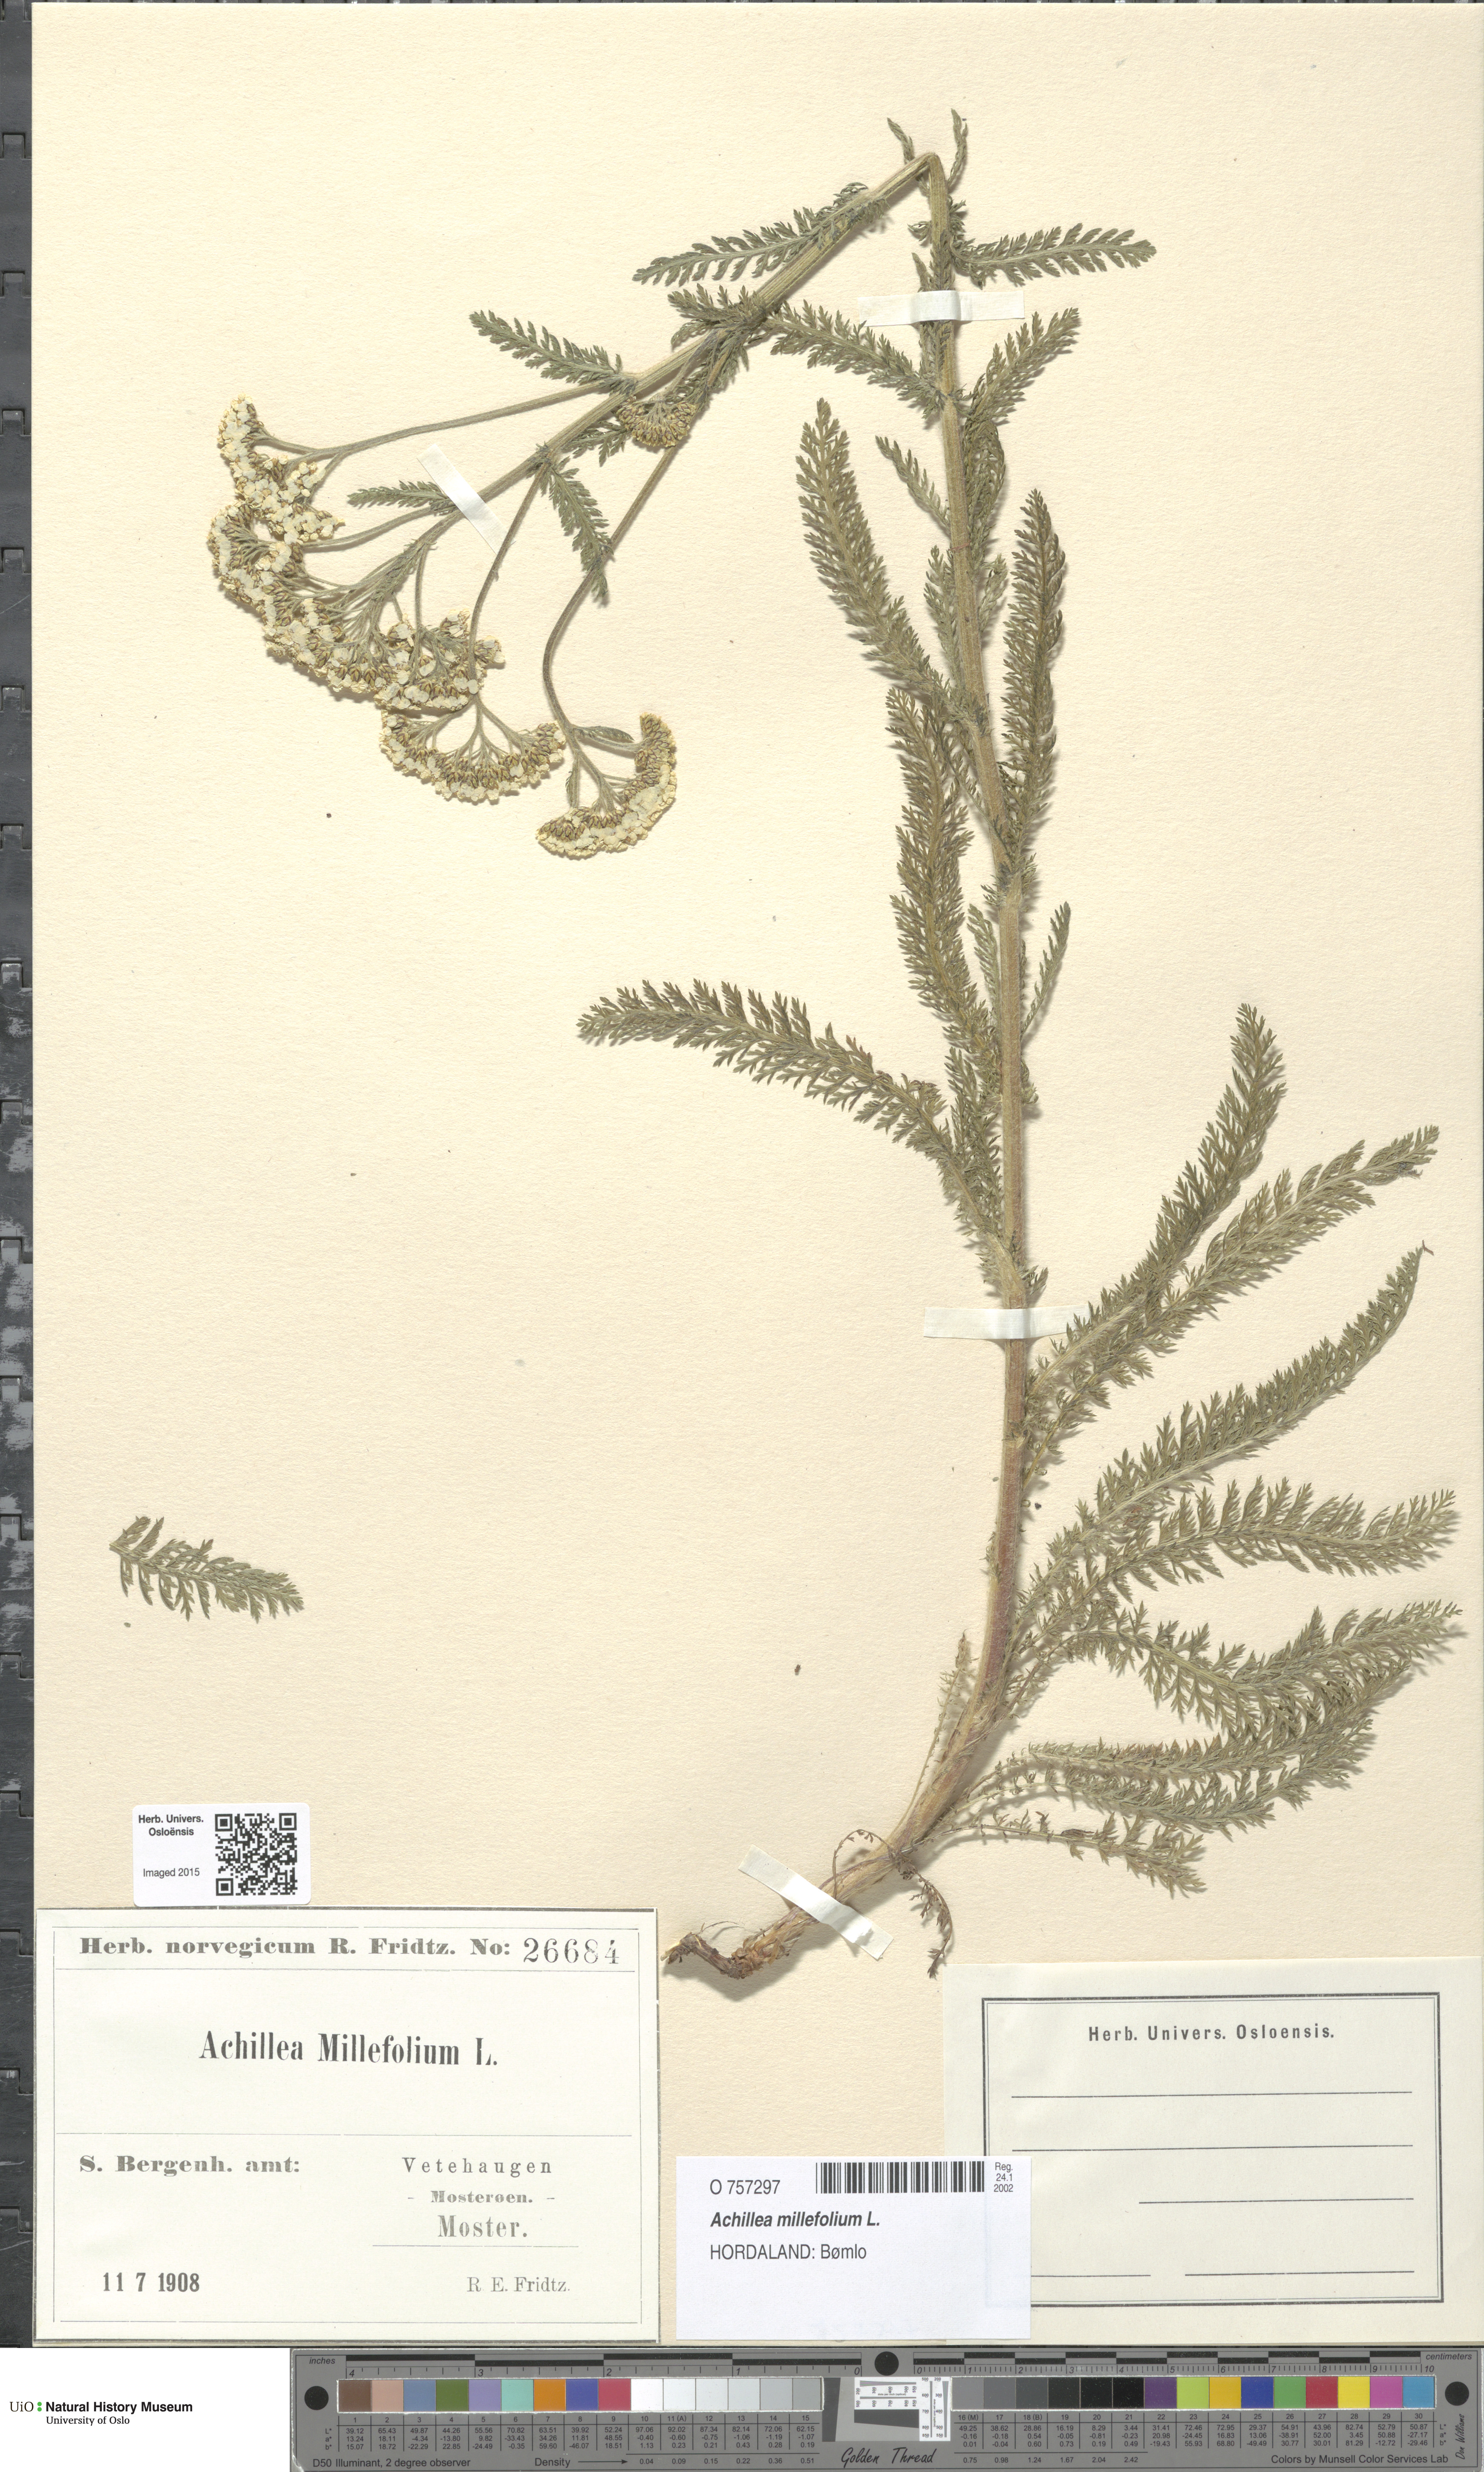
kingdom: Plantae
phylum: Tracheophyta
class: Magnoliopsida
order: Asterales
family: Asteraceae
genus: Achillea
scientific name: Achillea millefolium
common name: Yarrow
